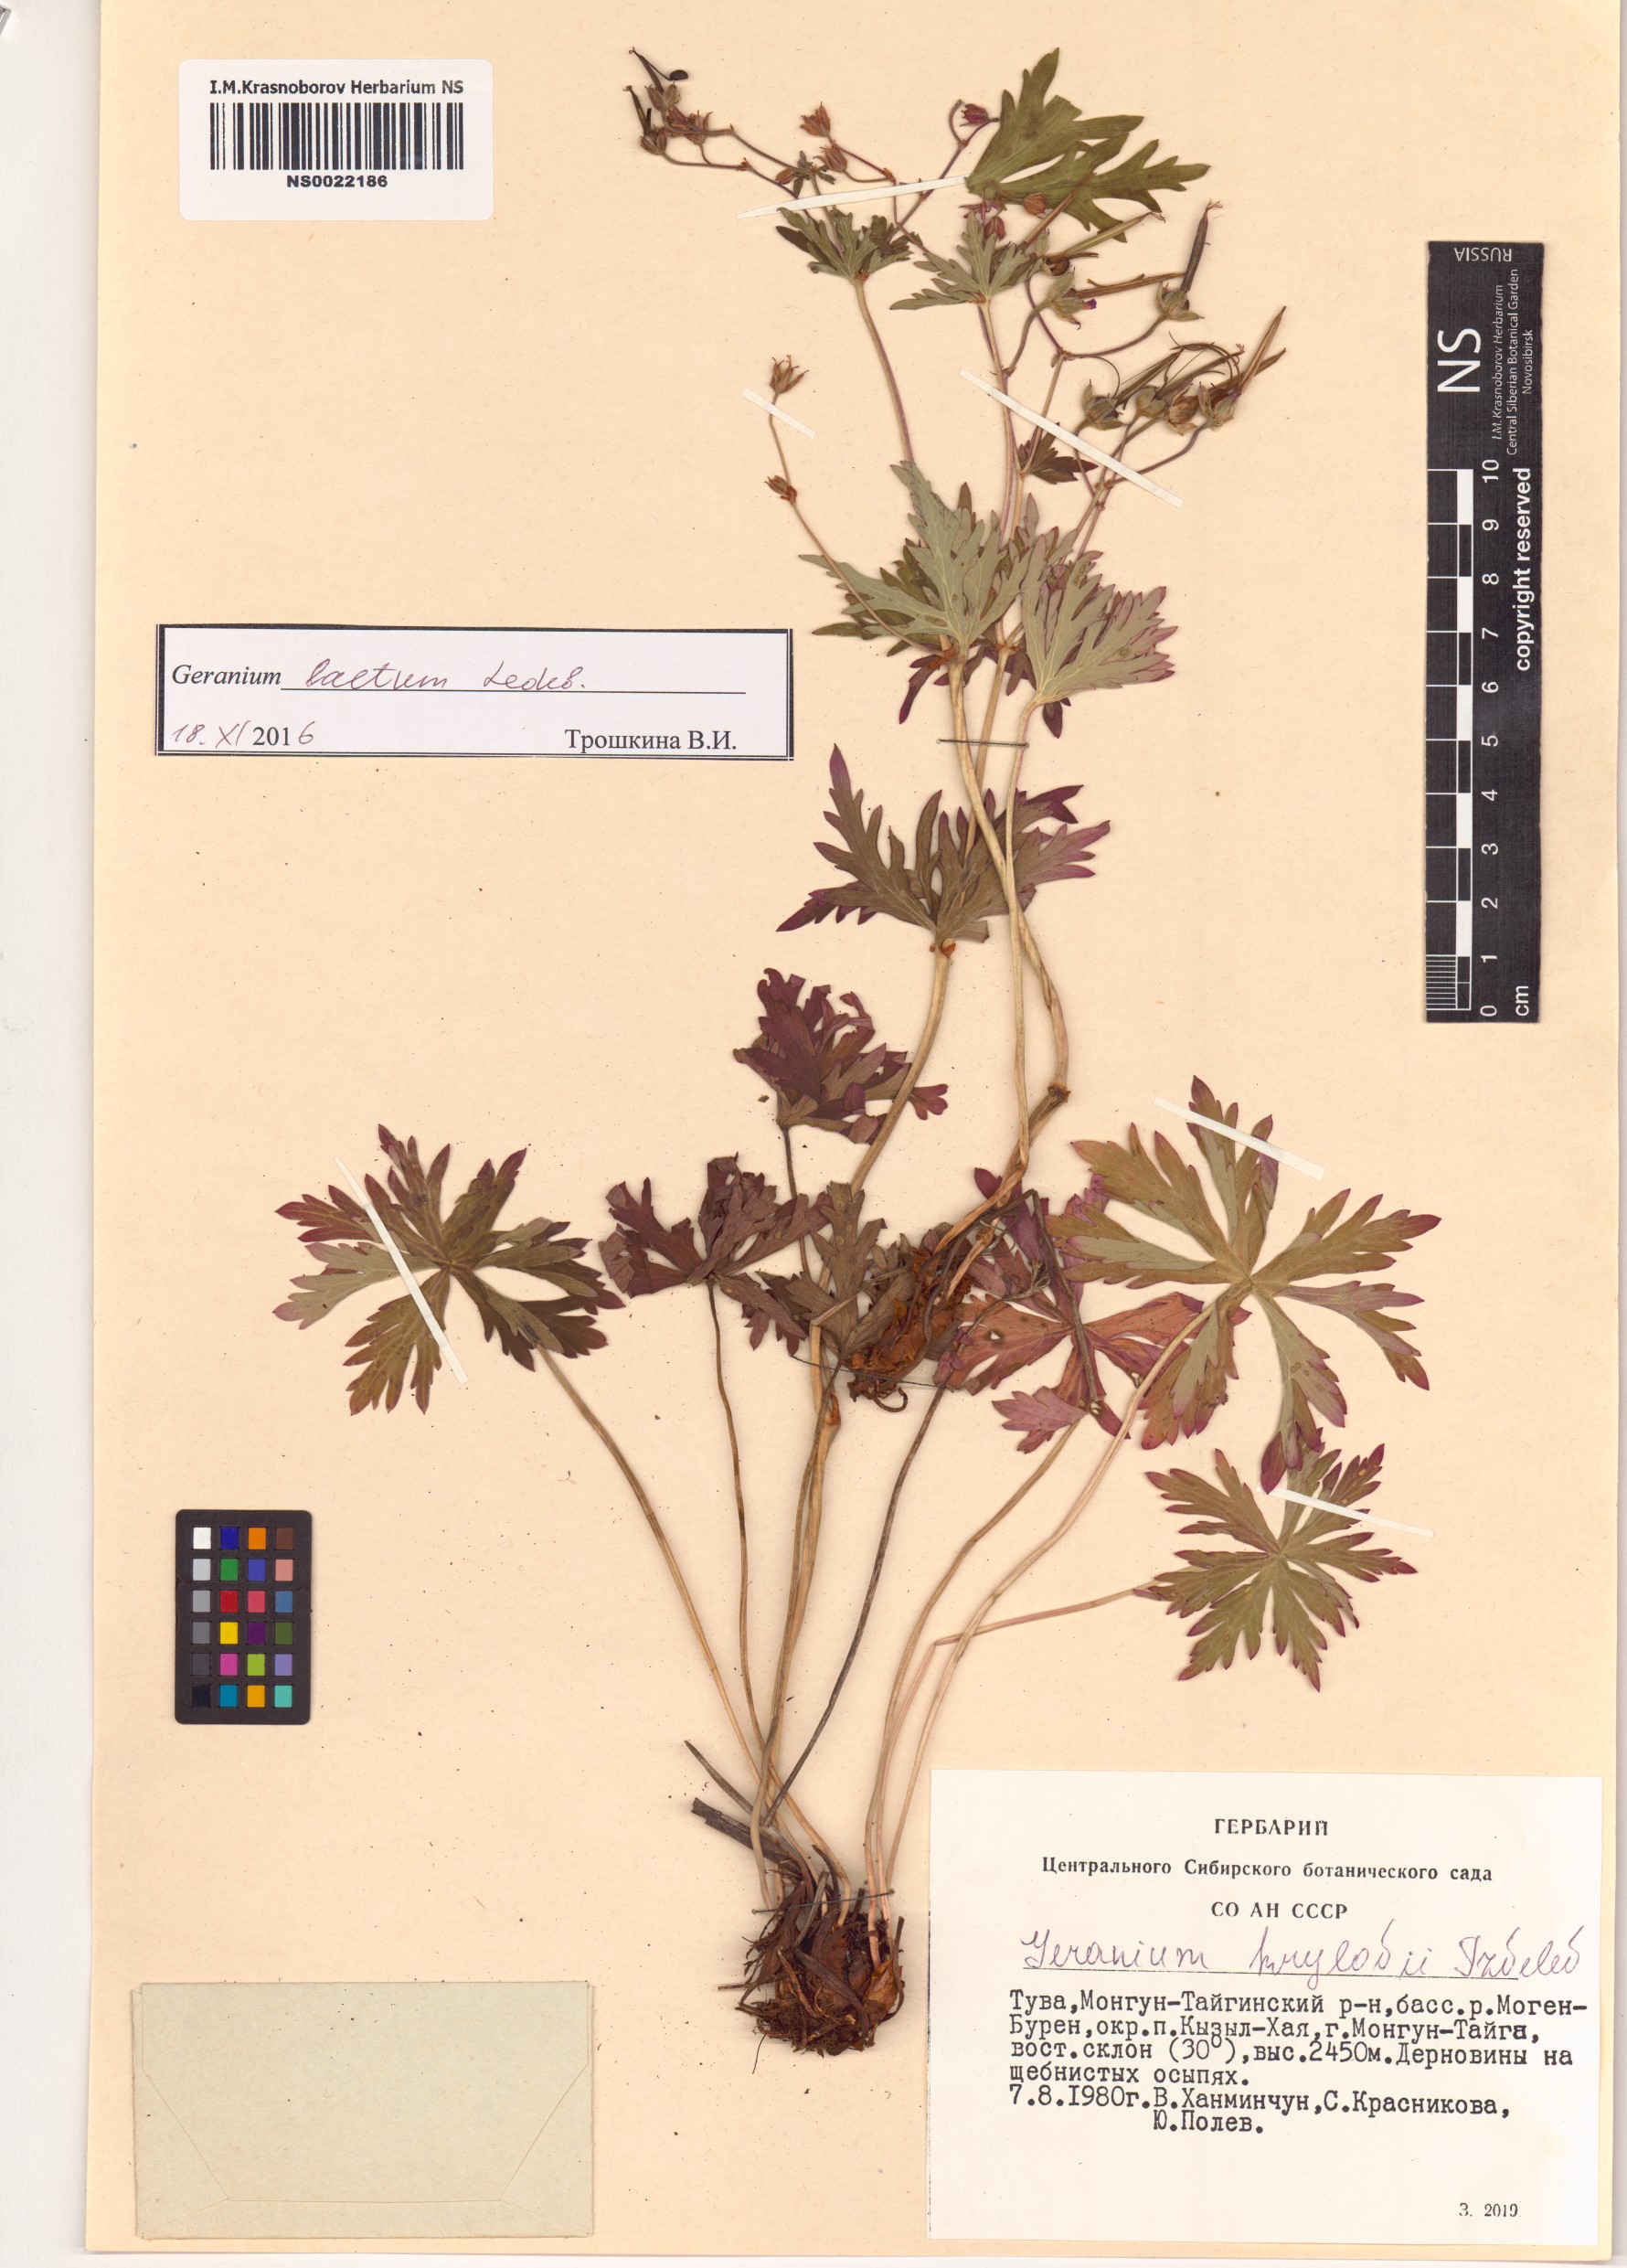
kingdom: Plantae
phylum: Tracheophyta
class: Magnoliopsida
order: Geraniales
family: Geraniaceae
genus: Geranium
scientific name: Geranium sylvaticum
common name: Wood crane's-bill
